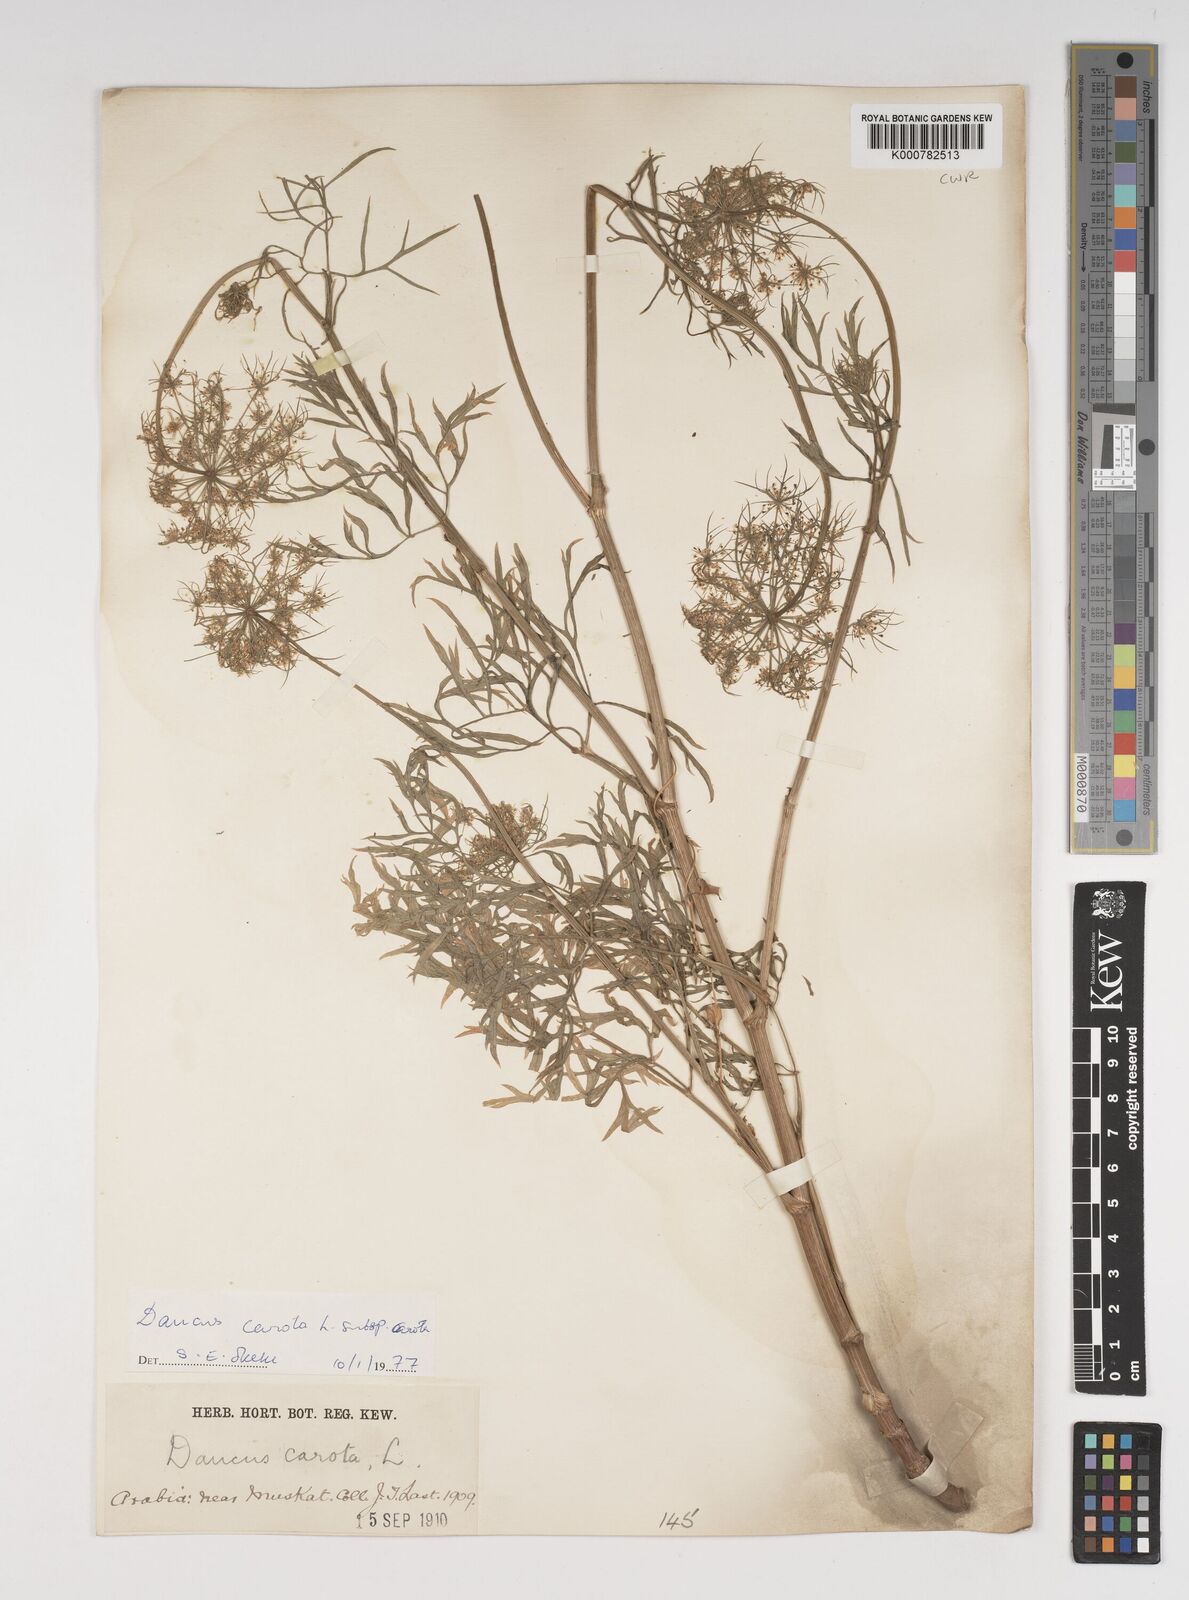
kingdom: Plantae
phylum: Tracheophyta
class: Magnoliopsida
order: Apiales
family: Apiaceae
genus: Daucus
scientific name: Daucus carota
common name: Wild carrot
